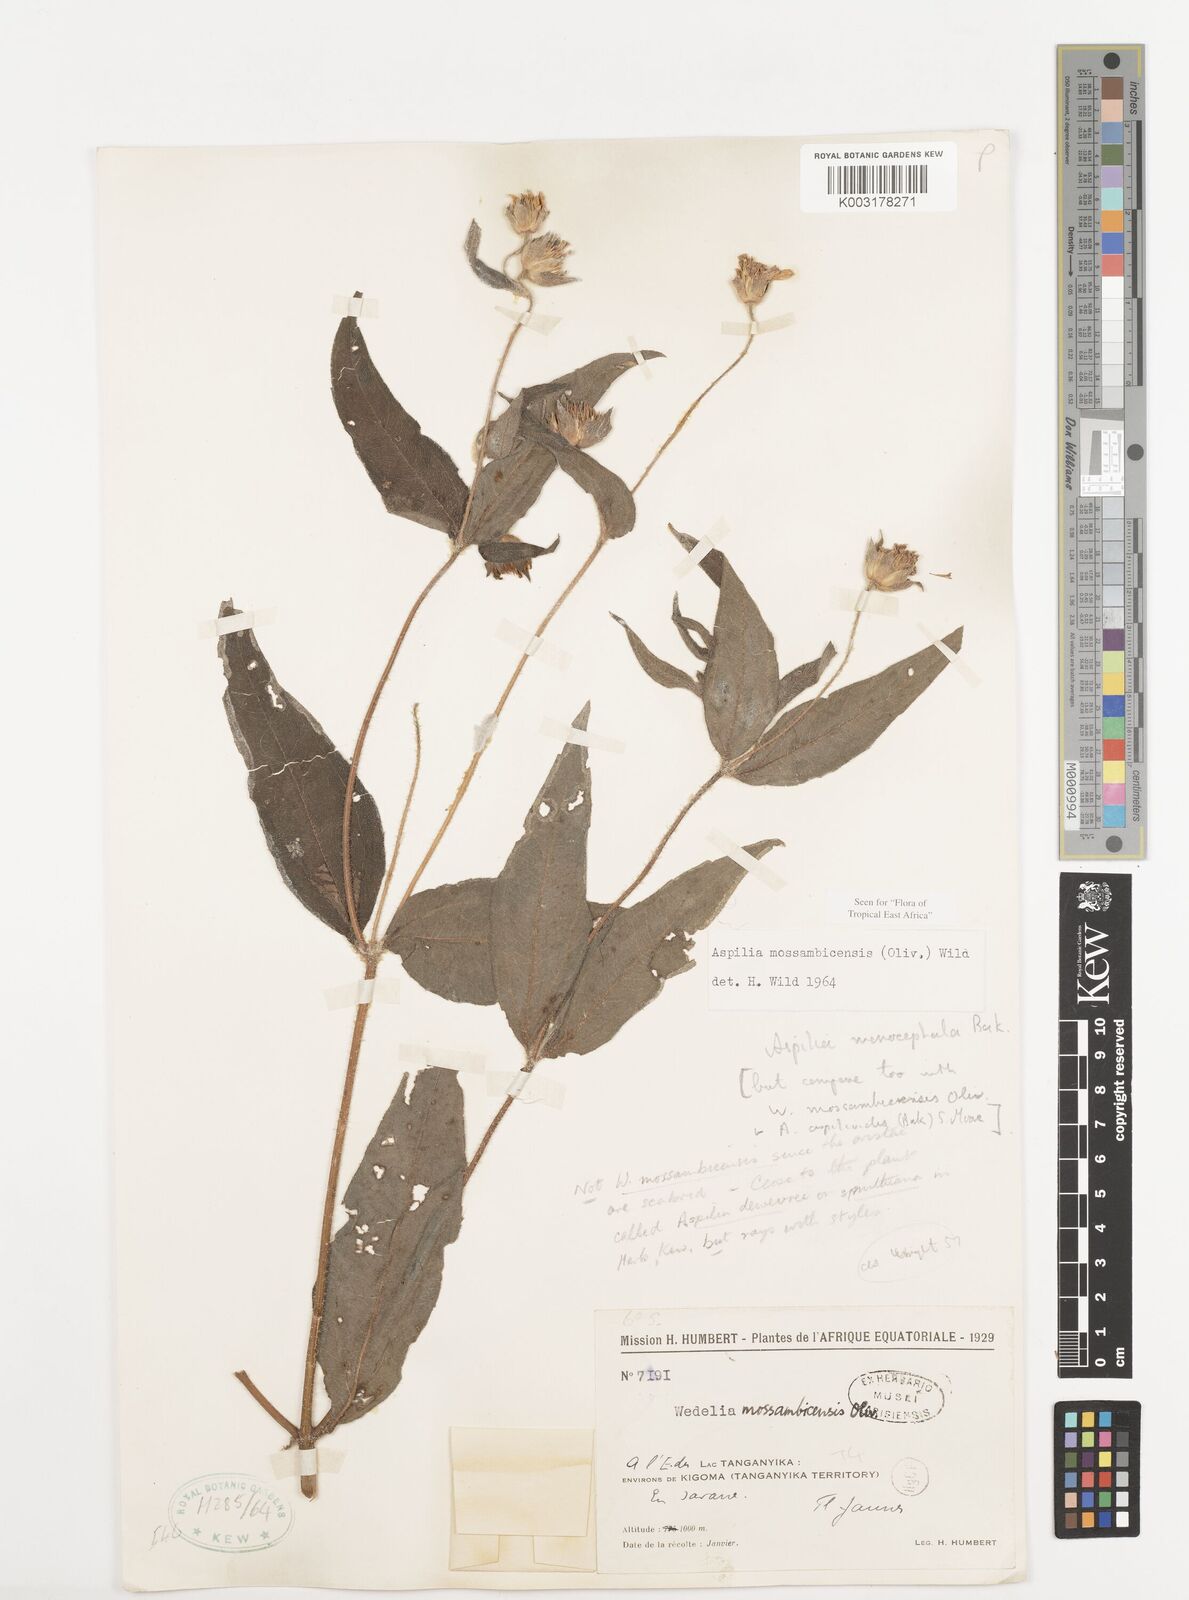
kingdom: Plantae
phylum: Tracheophyta
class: Magnoliopsida
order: Asterales
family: Asteraceae
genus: Aspilia
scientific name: Aspilia mossambicensis
